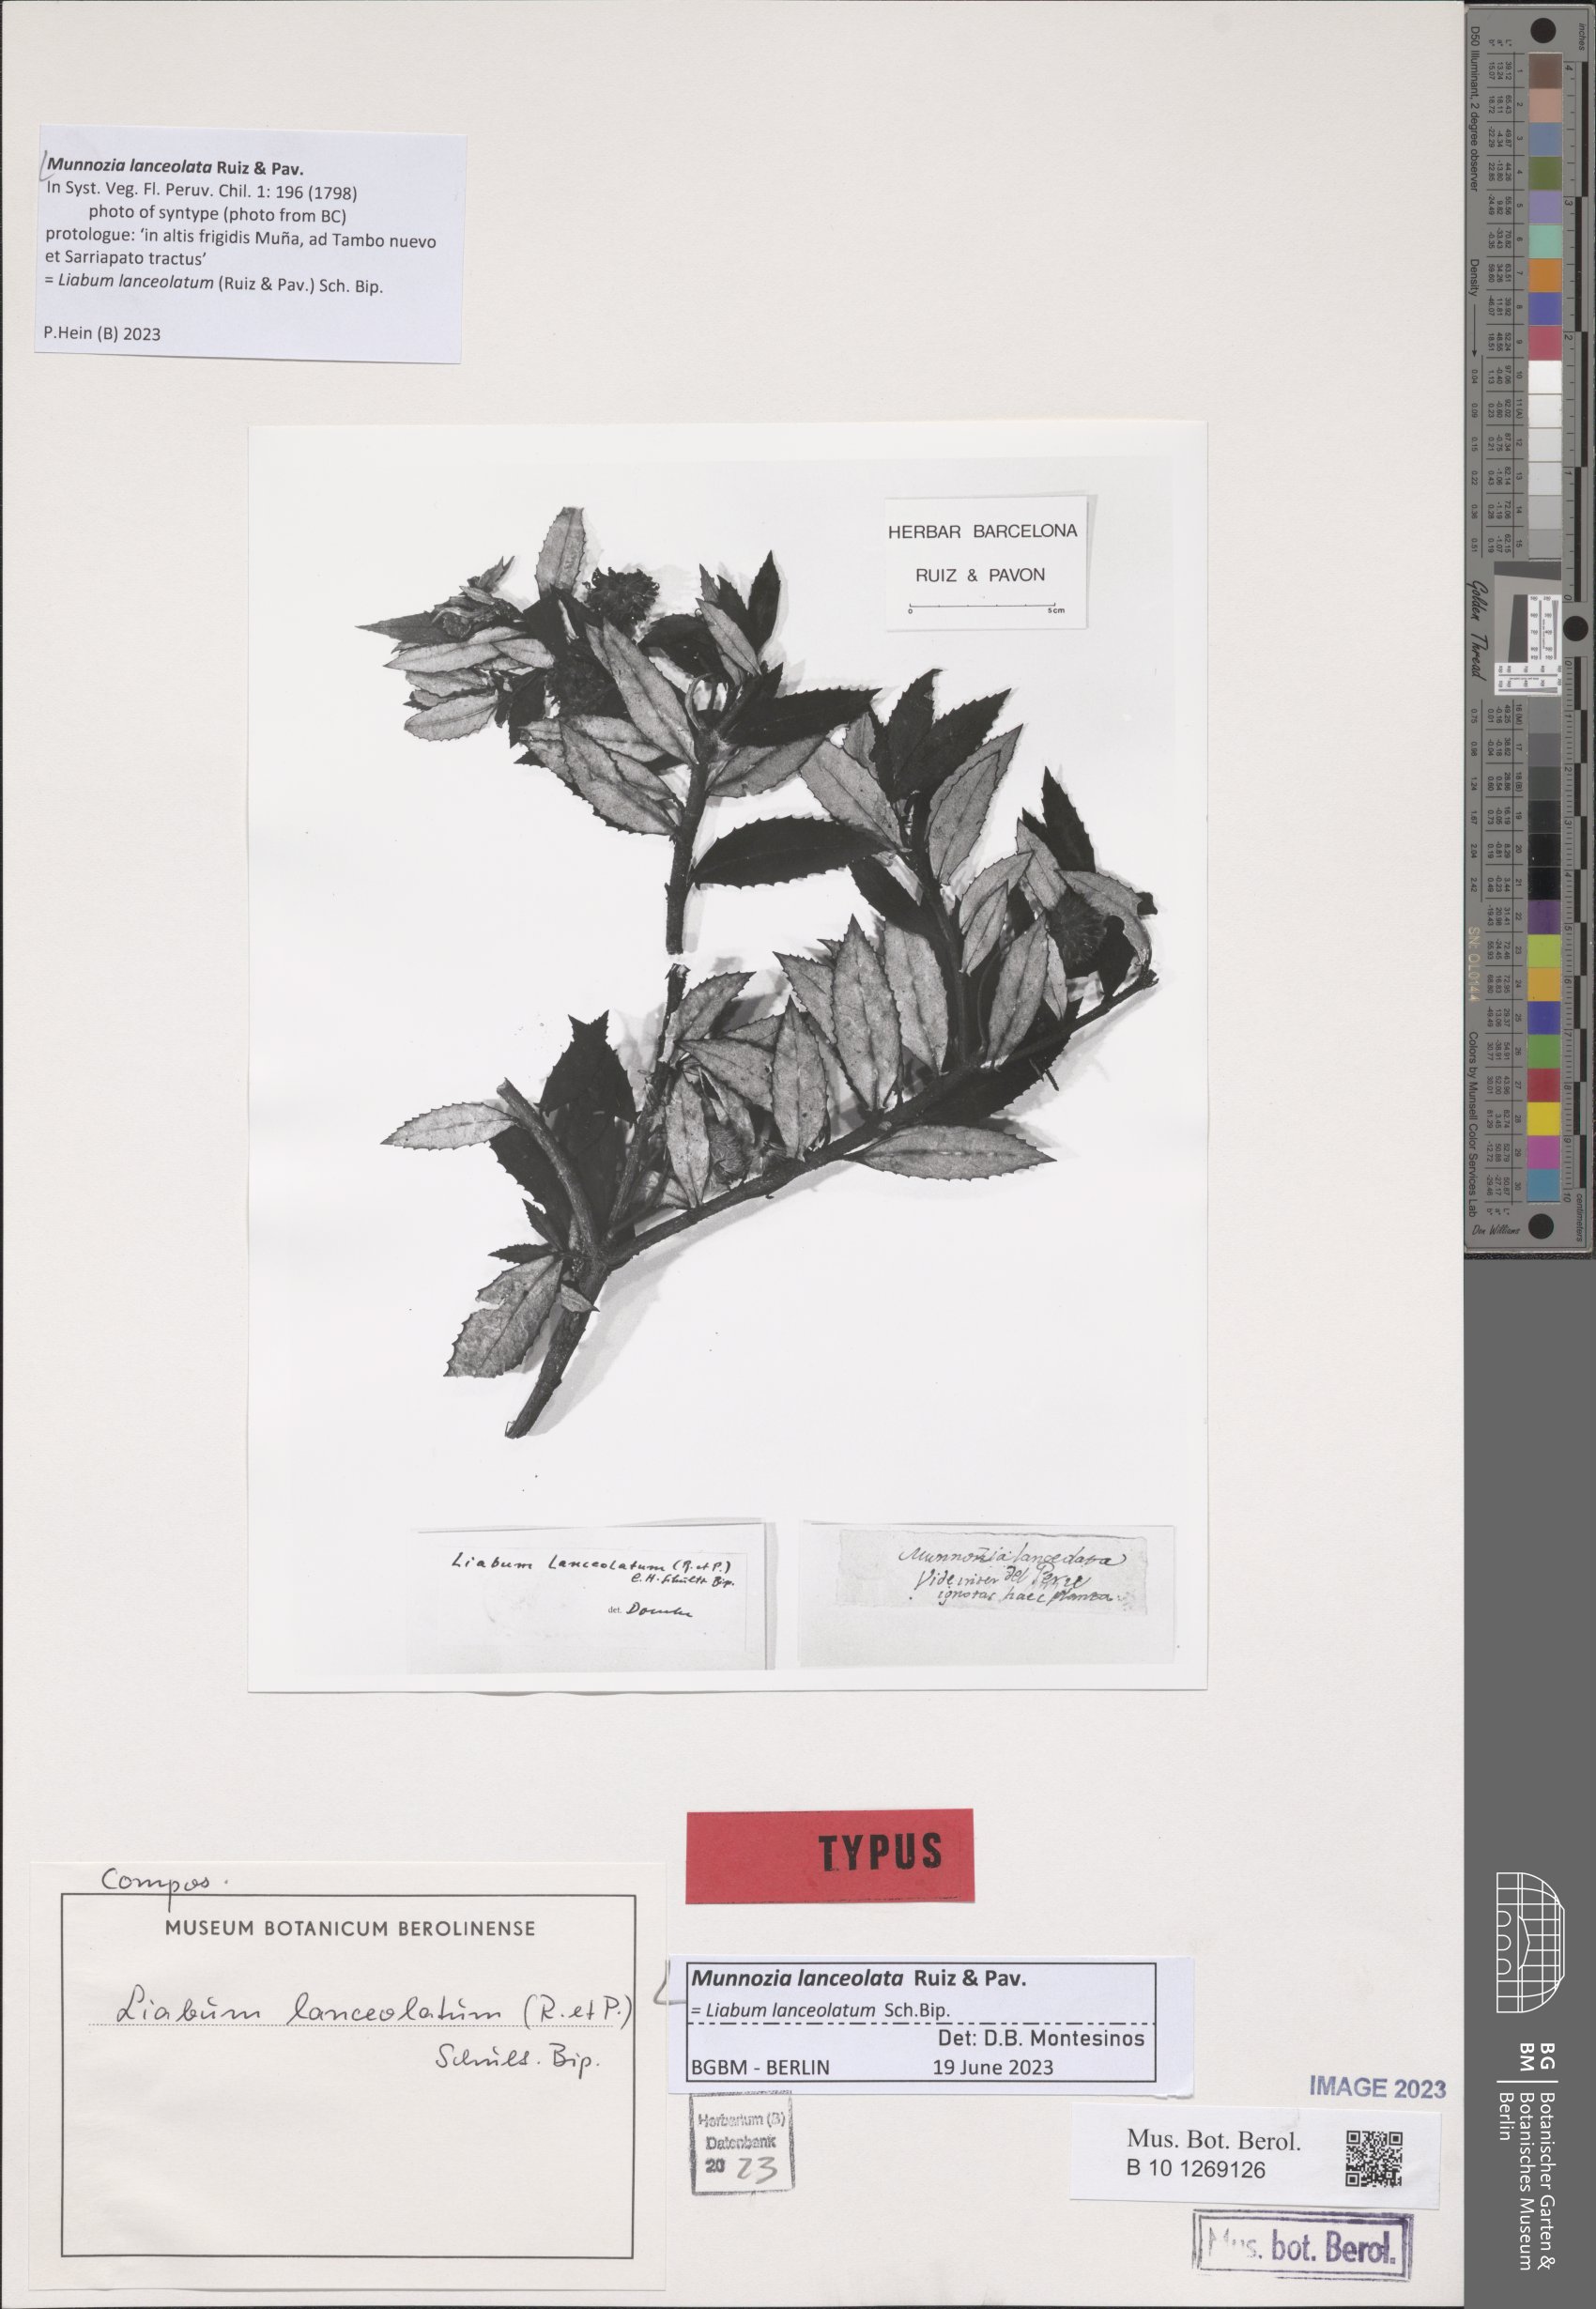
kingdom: Plantae
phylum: Tracheophyta
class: Magnoliopsida
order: Asterales
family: Asteraceae
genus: Munnozia
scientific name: Munnozia lanceolata
